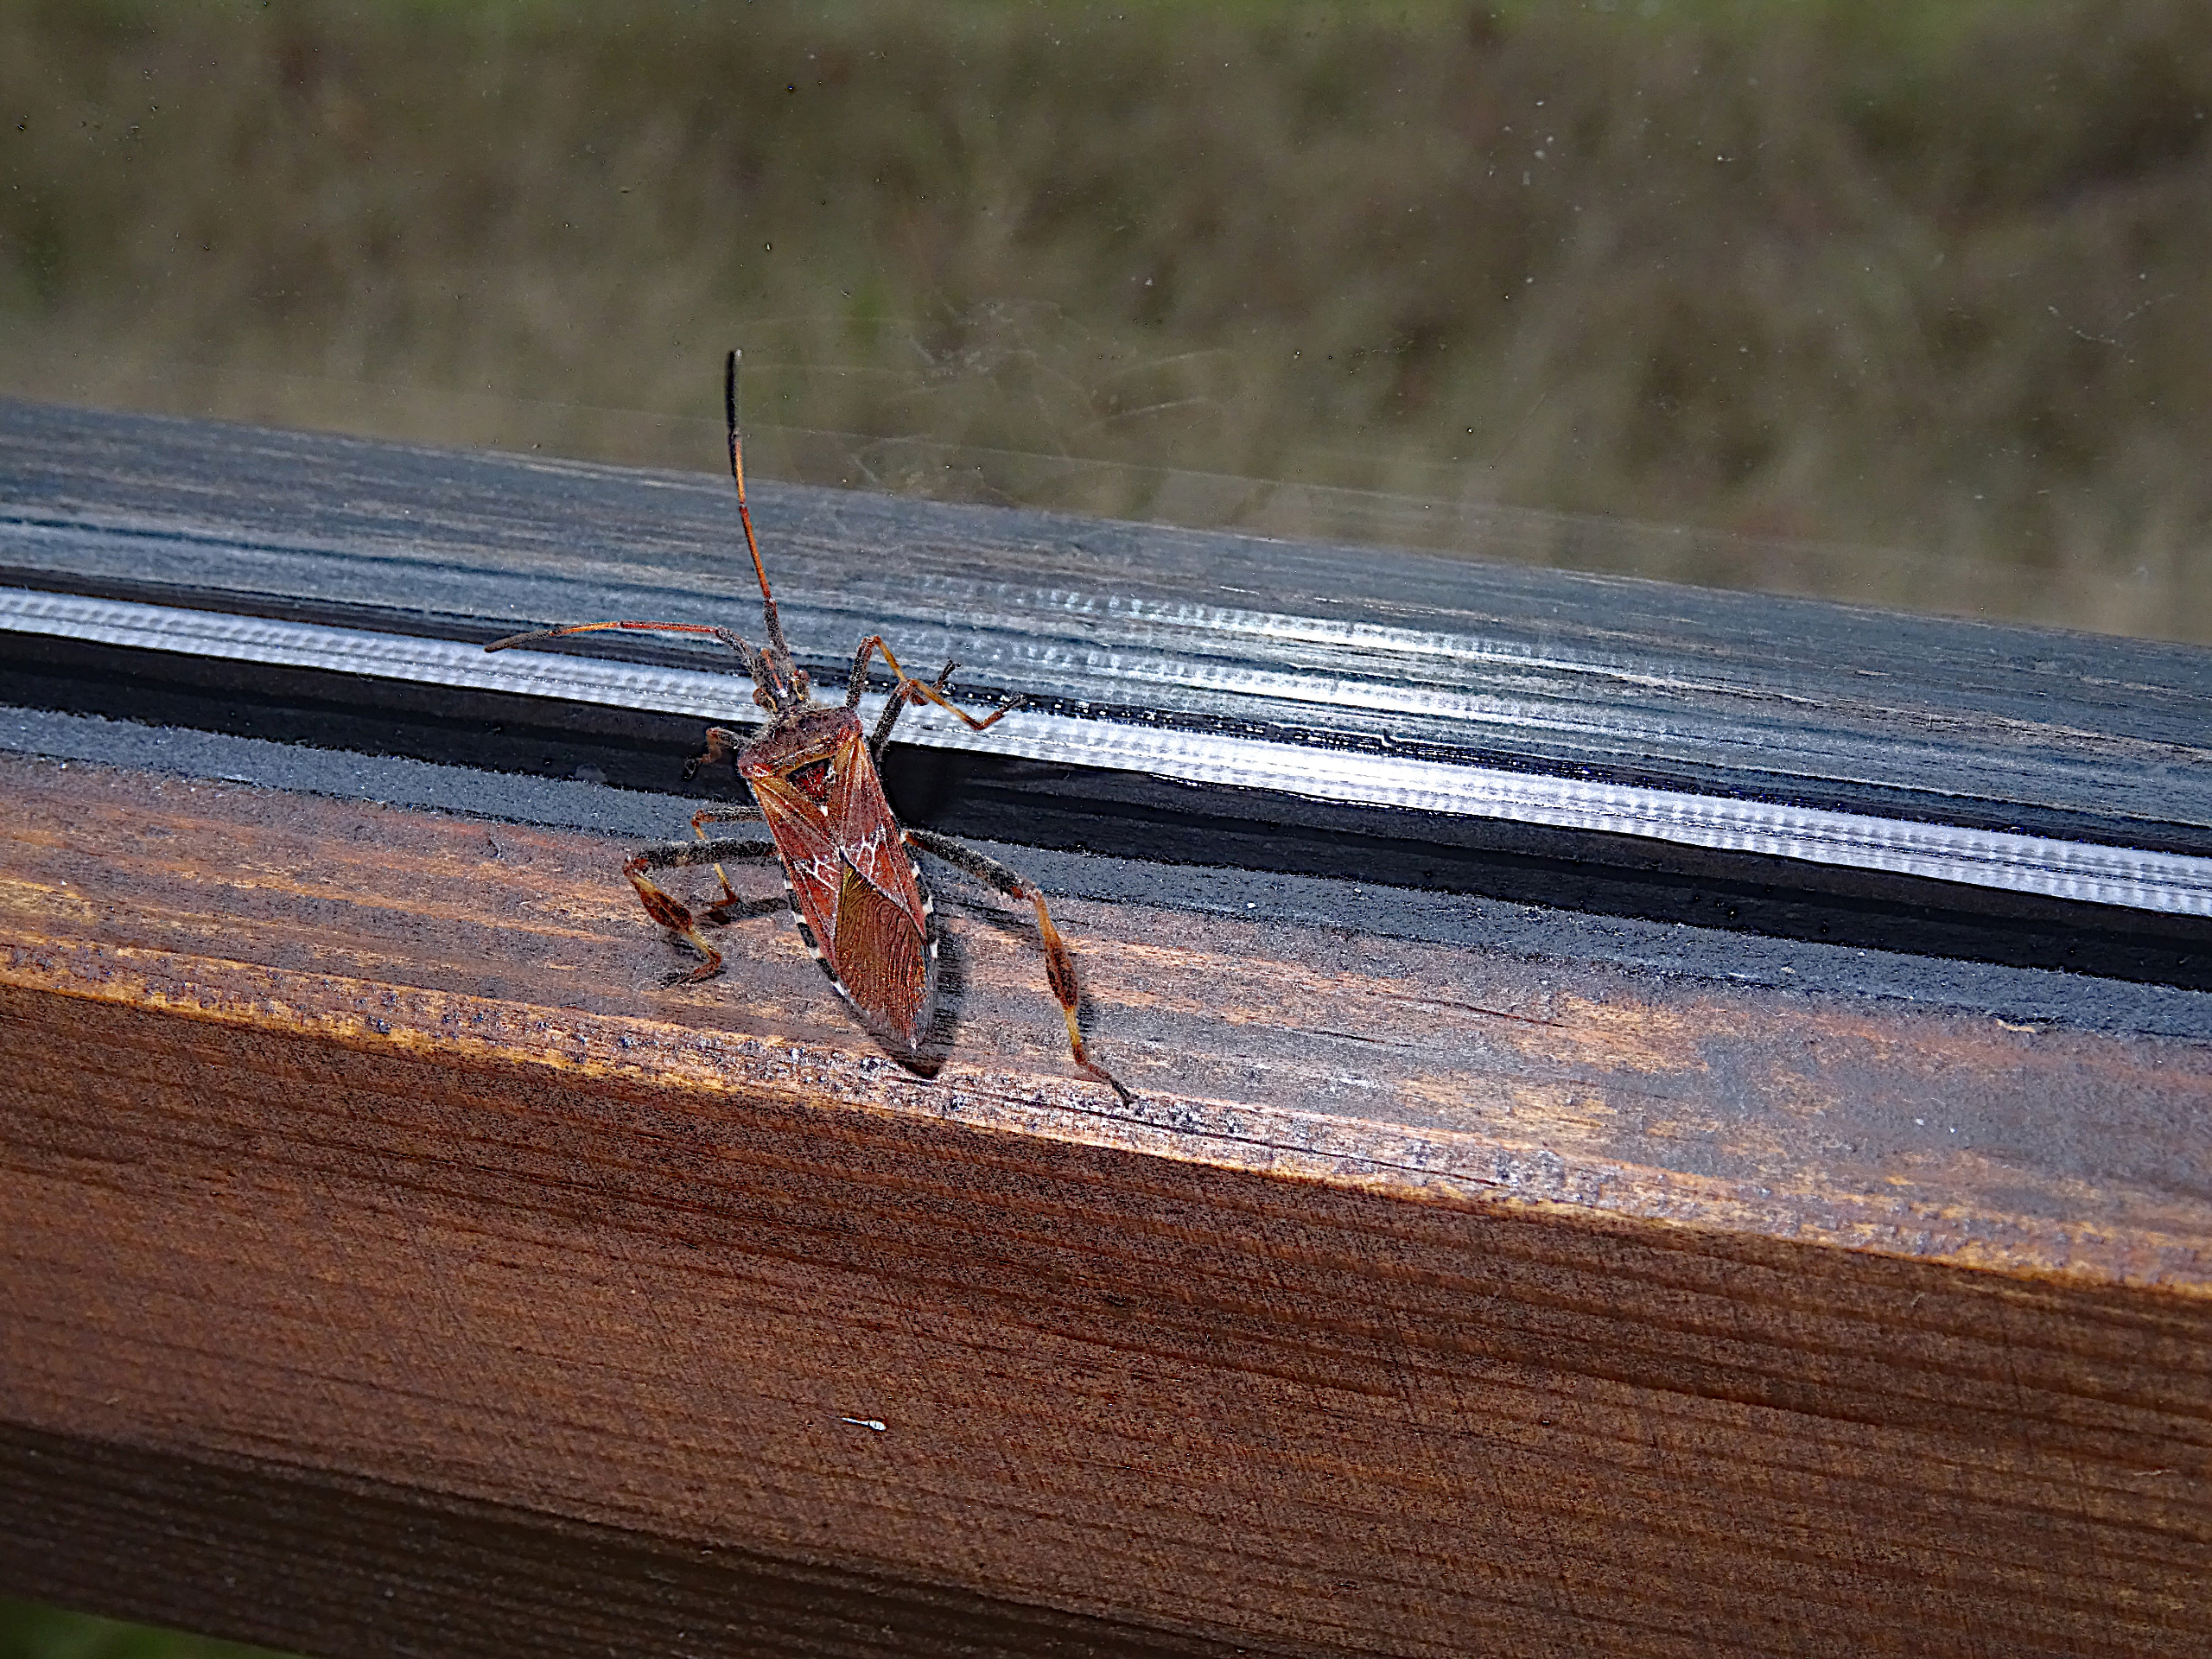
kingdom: Animalia
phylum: Arthropoda
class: Insecta
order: Hemiptera
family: Coreidae
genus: Leptoglossus
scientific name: Leptoglossus occidentalis
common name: Amerikansk fyrretæge
